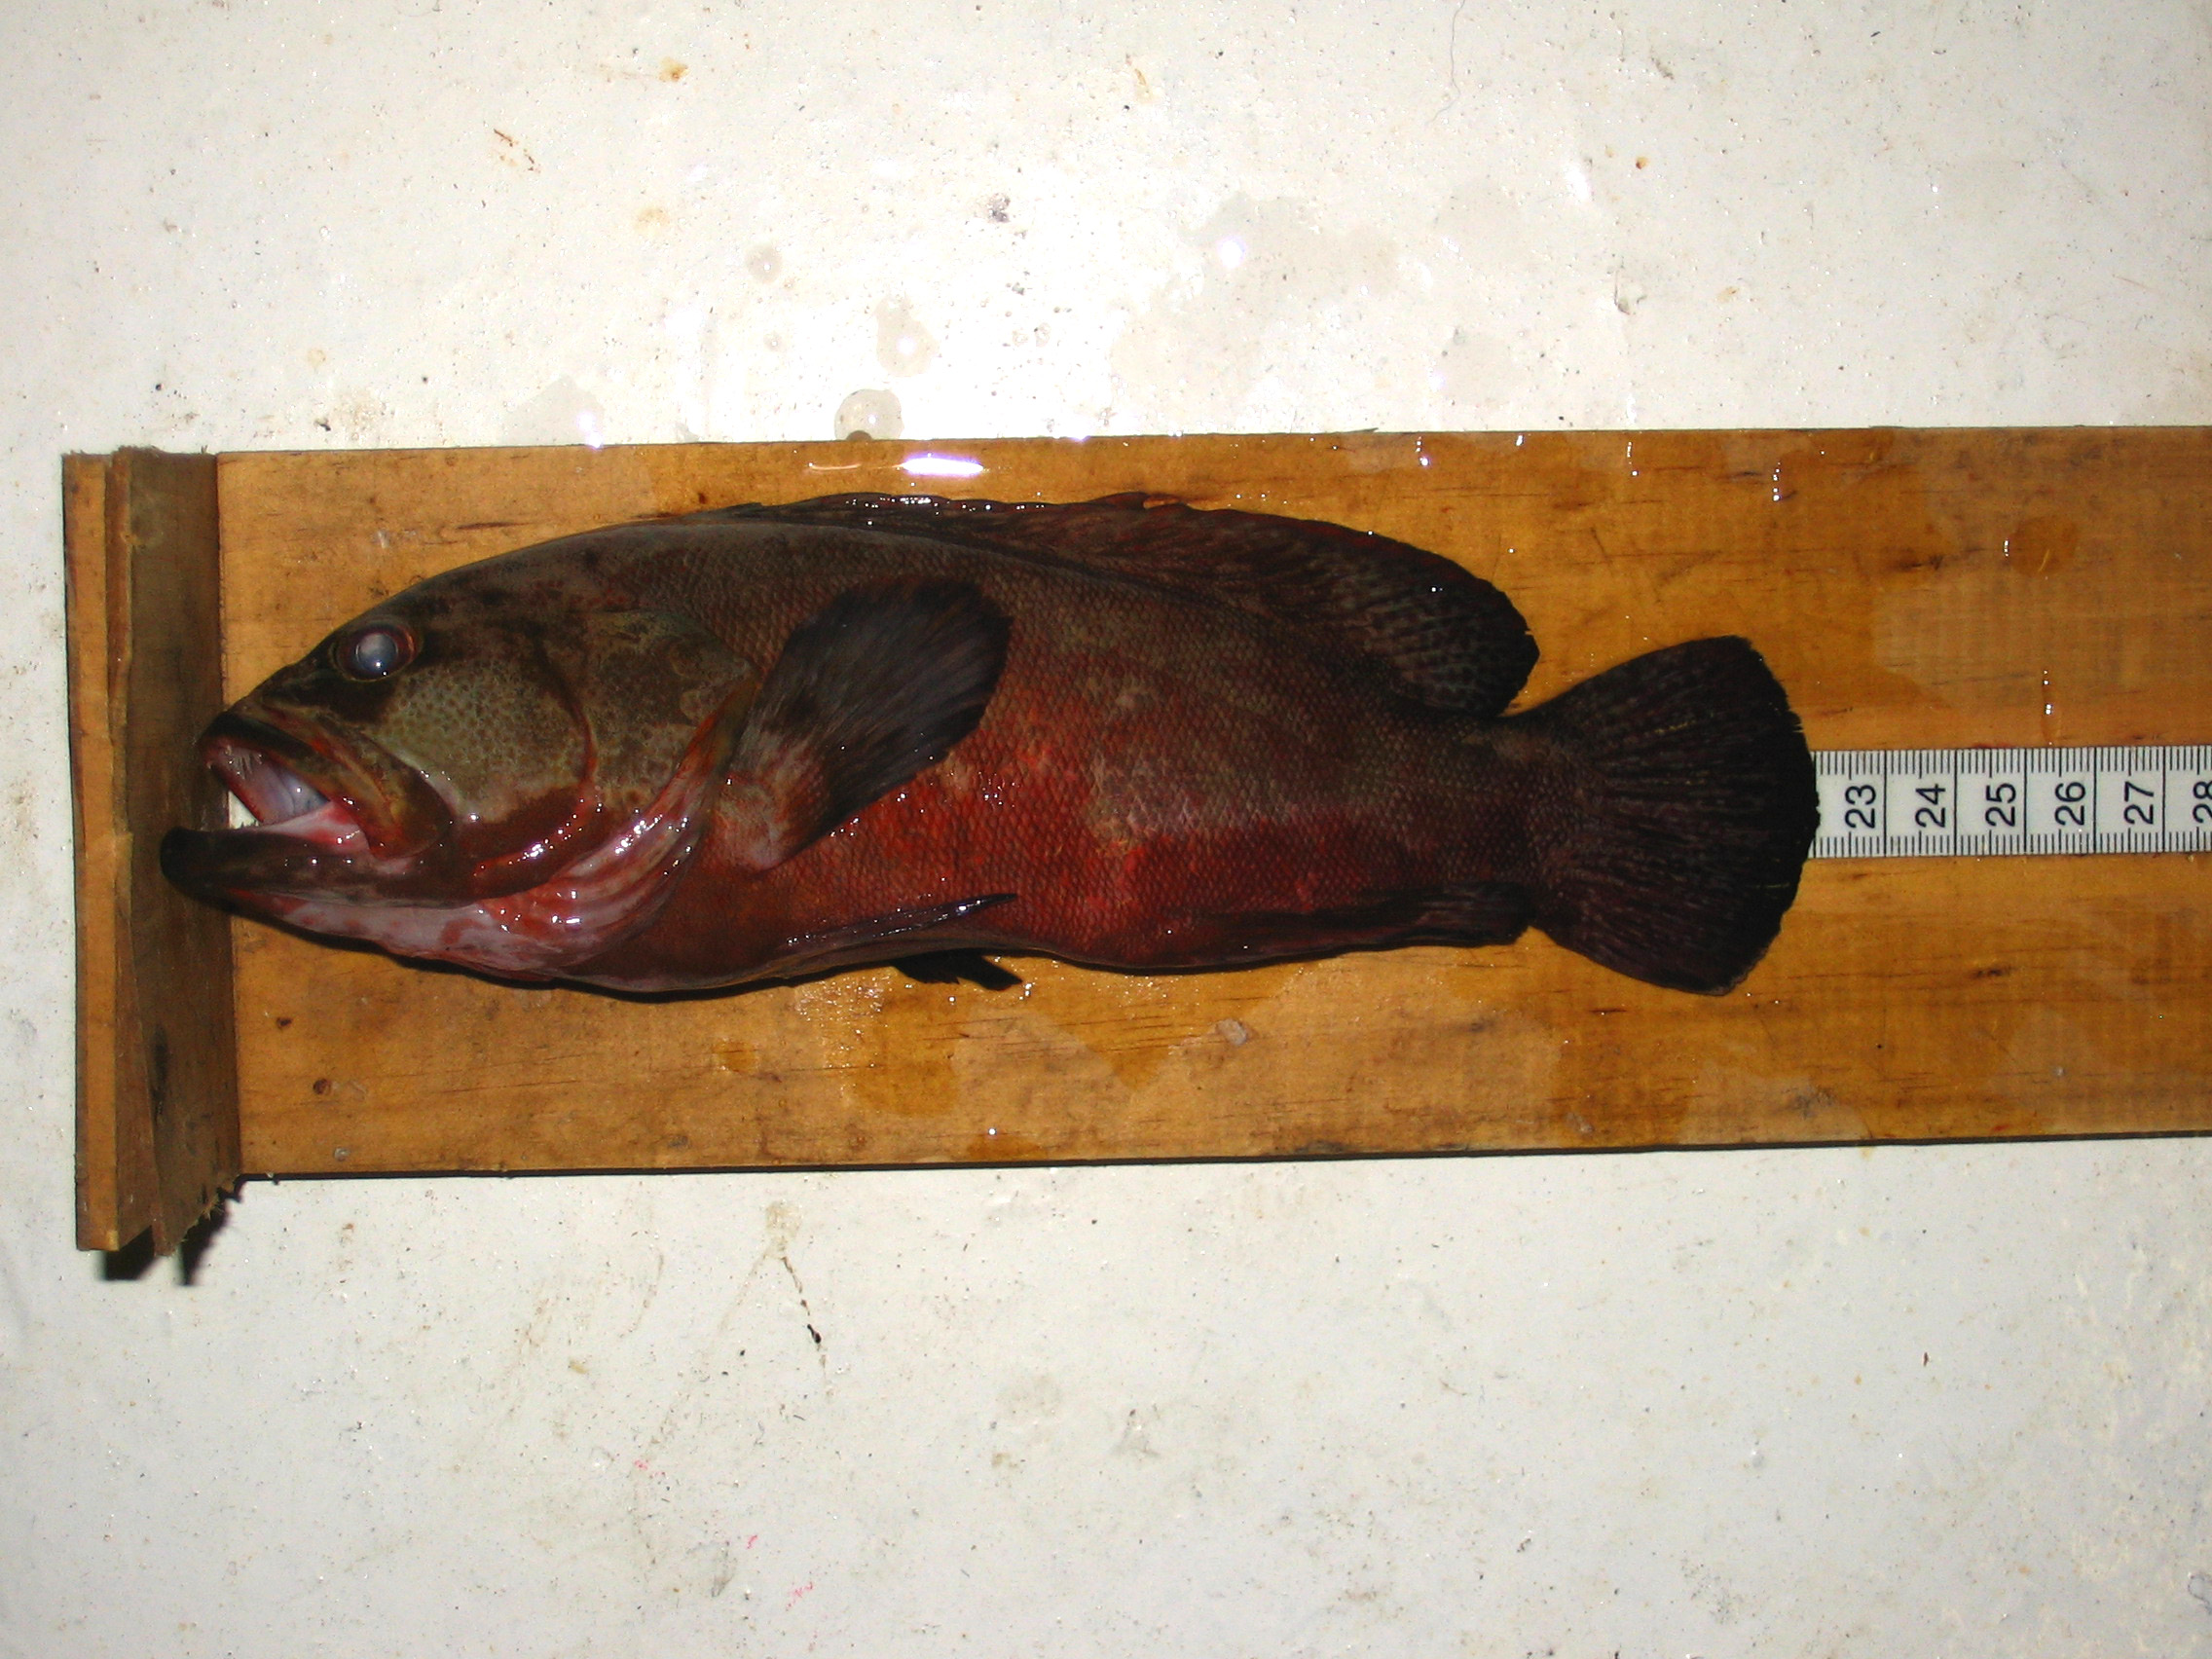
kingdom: Animalia
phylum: Chordata
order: Perciformes
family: Serranidae
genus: Cephalopholis
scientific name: Cephalopholis nigripinnis
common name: Duskyfin hind
